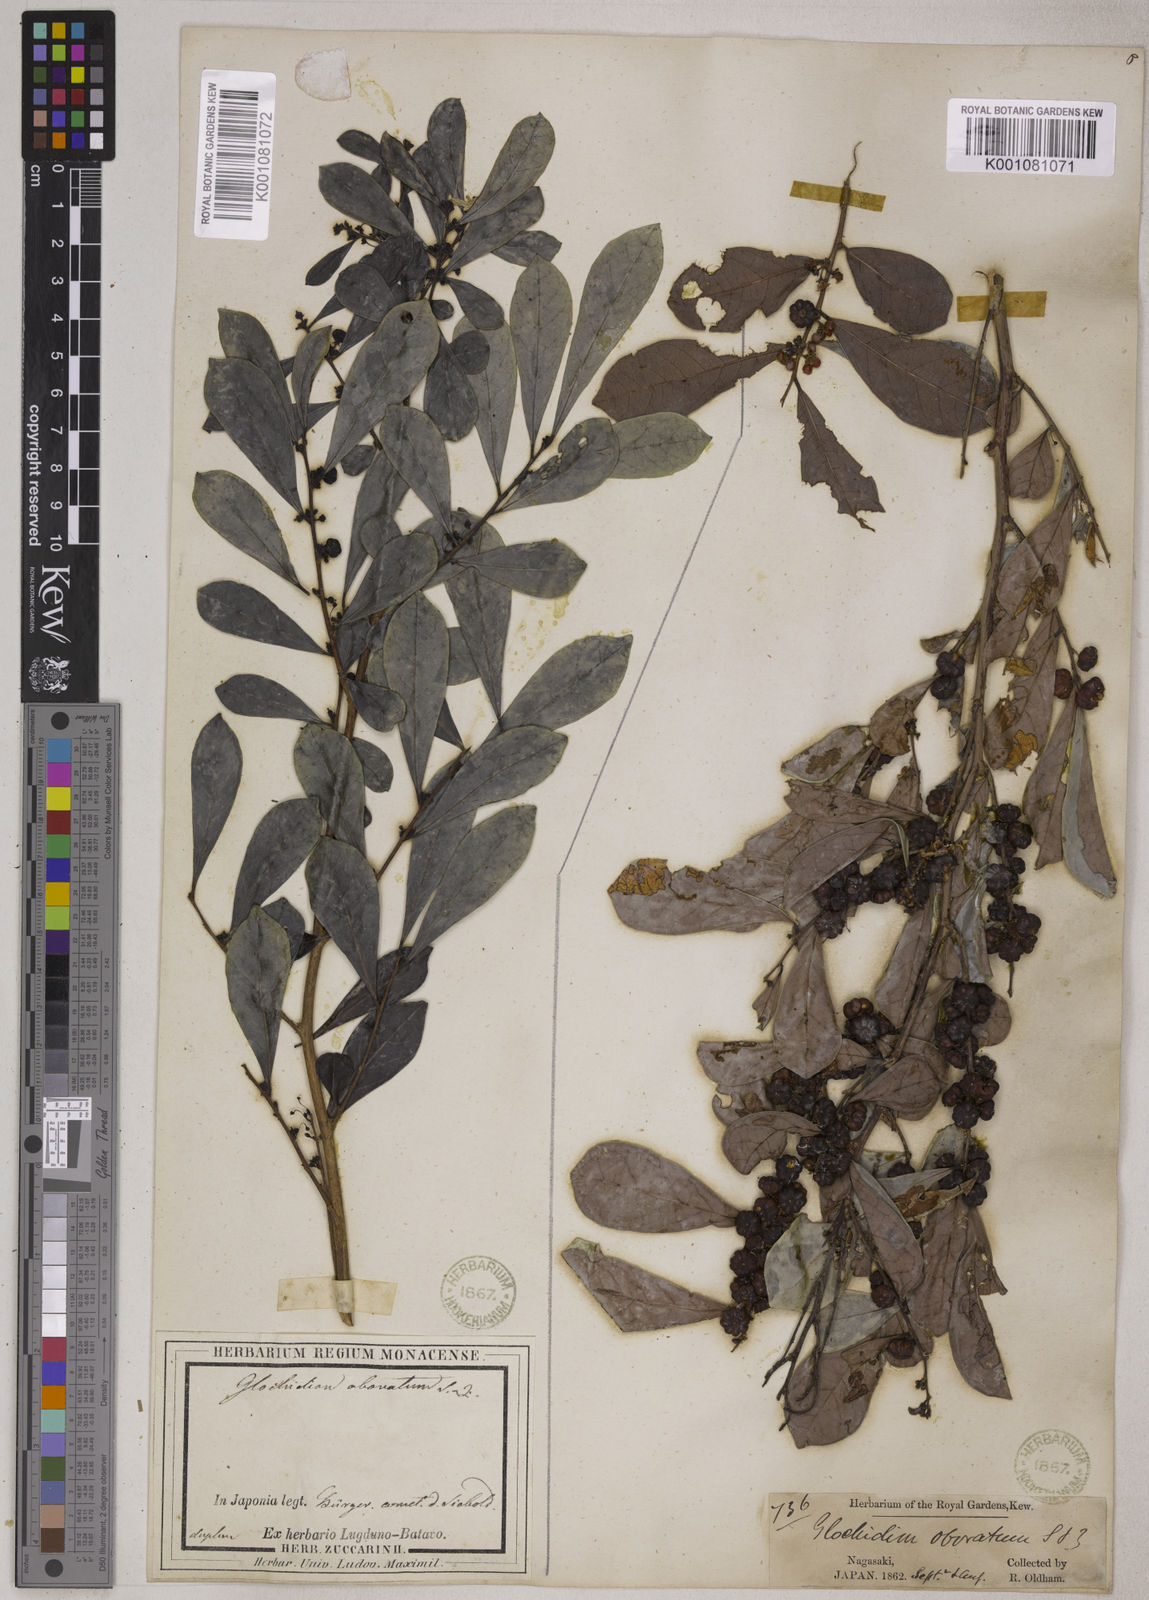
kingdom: Plantae
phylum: Tracheophyta
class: Magnoliopsida
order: Malpighiales
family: Phyllanthaceae
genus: Glochidion
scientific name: Glochidion obovatum
